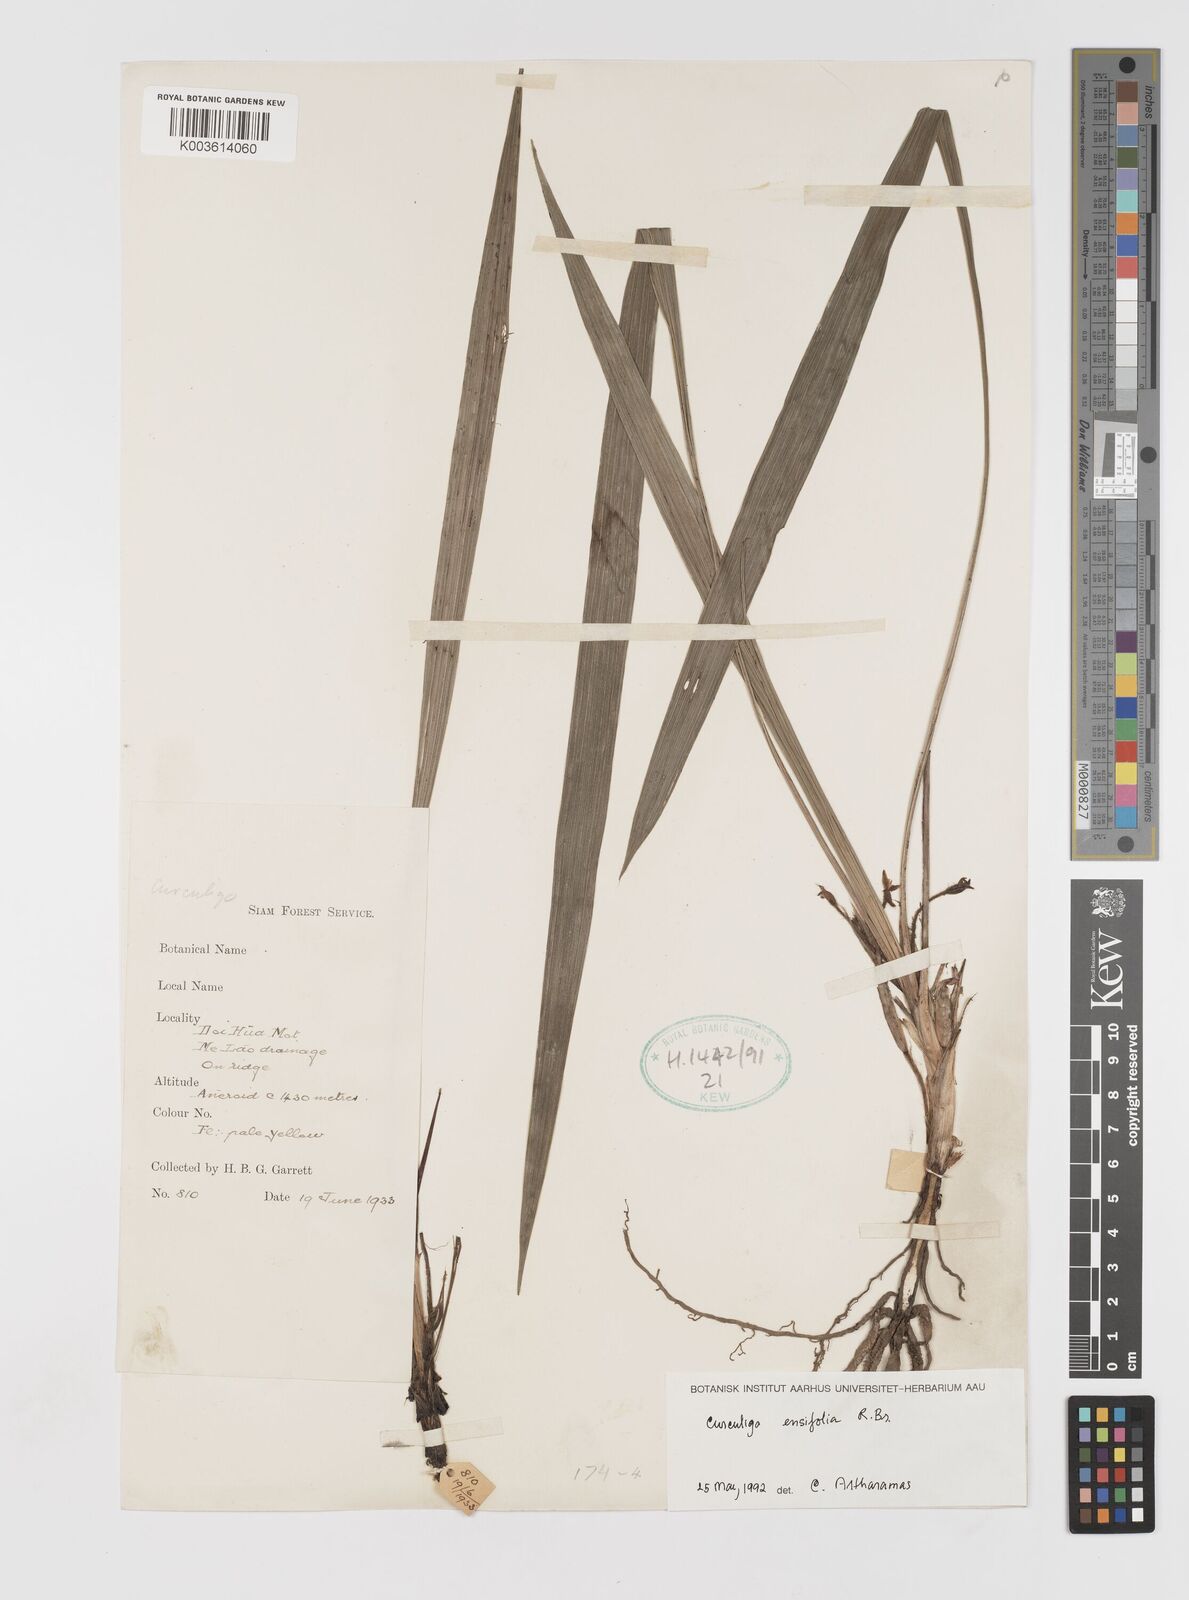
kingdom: Plantae
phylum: Tracheophyta
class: Liliopsida
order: Asparagales
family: Hypoxidaceae
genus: Curculigo
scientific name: Curculigo ensifolia
